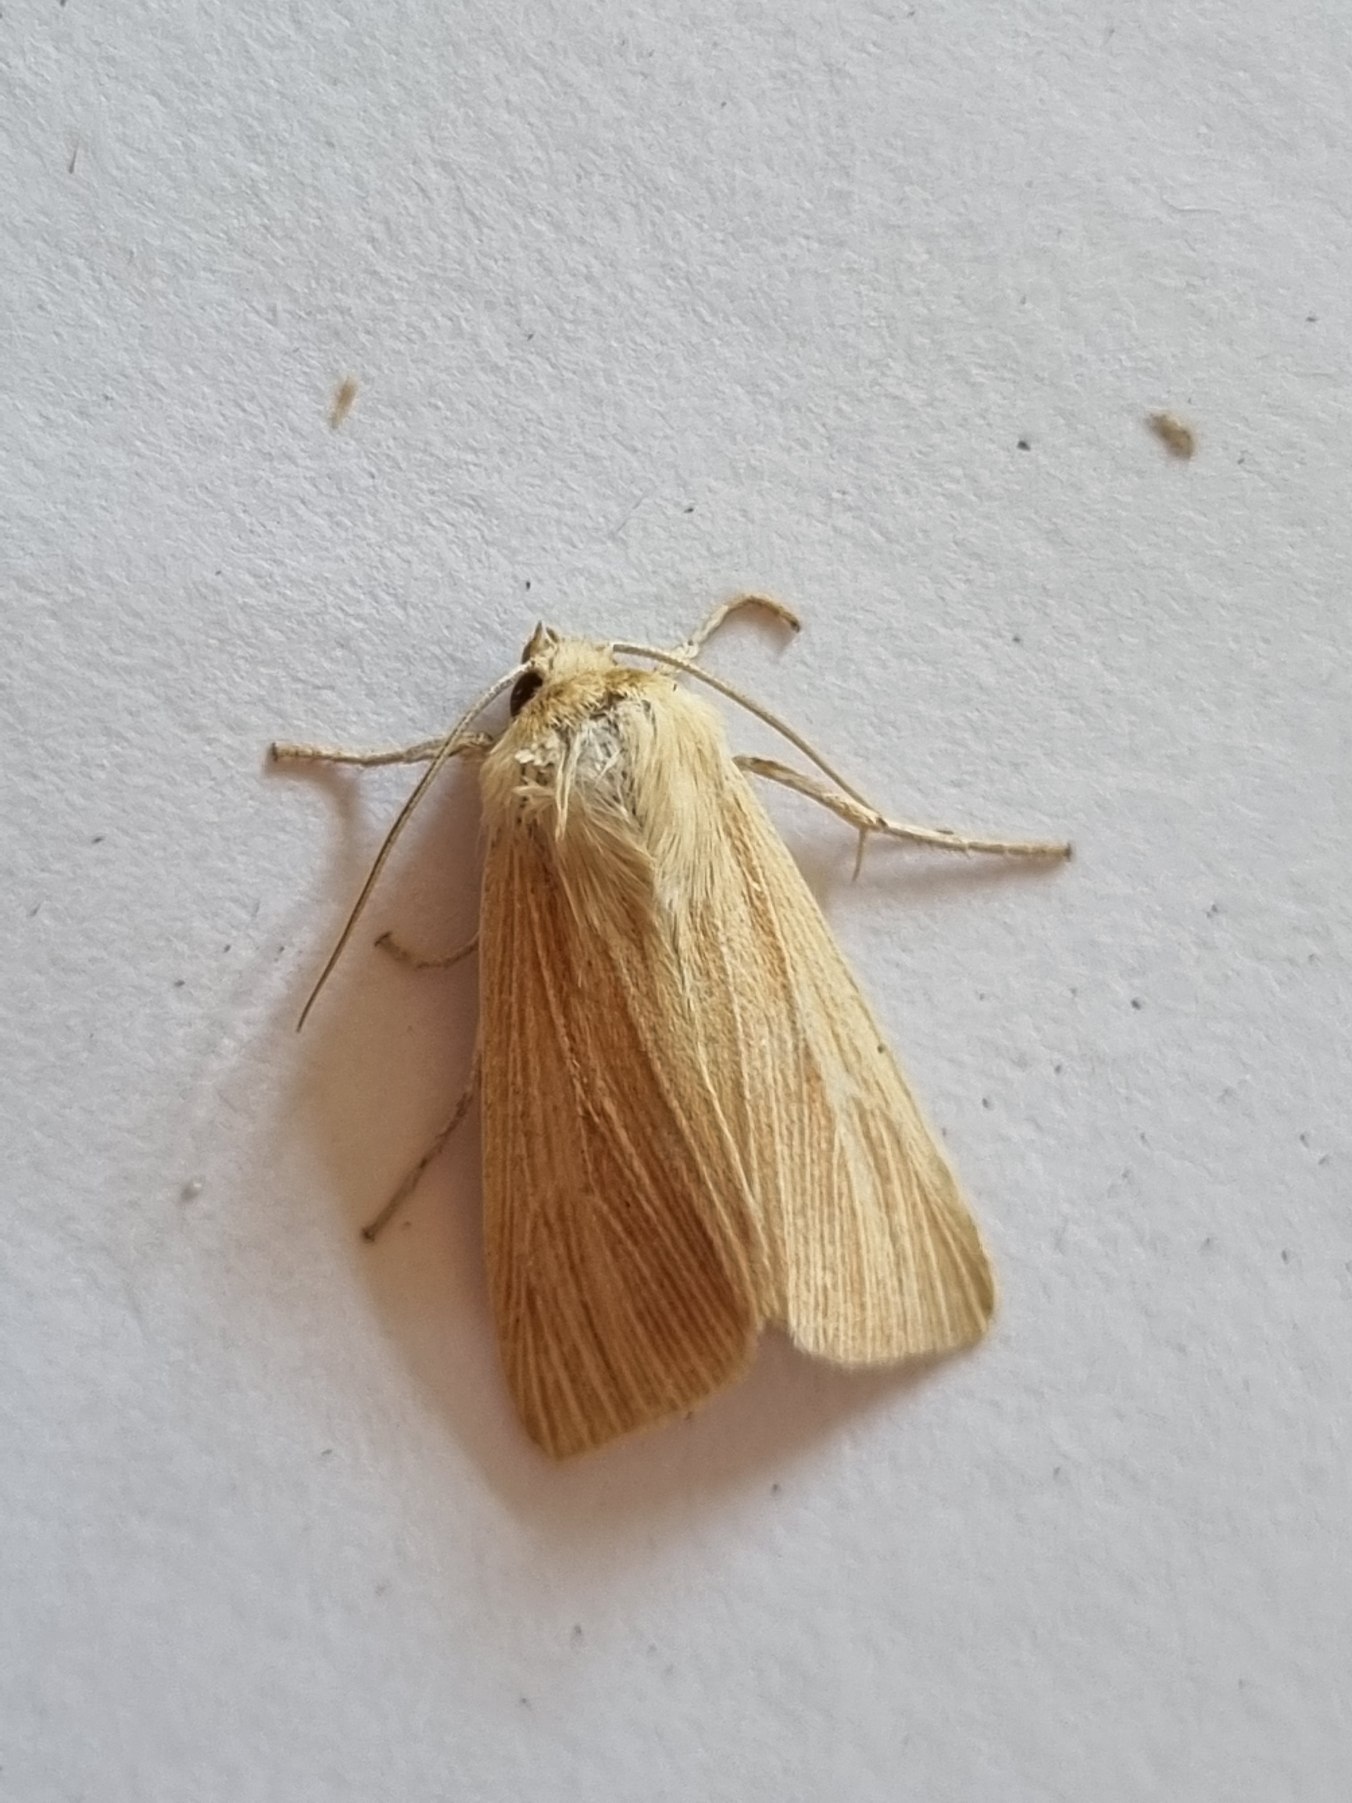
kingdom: Animalia
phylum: Arthropoda
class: Insecta
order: Lepidoptera
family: Noctuidae
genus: Mythimna
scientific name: Mythimna pallens
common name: Halmugle
